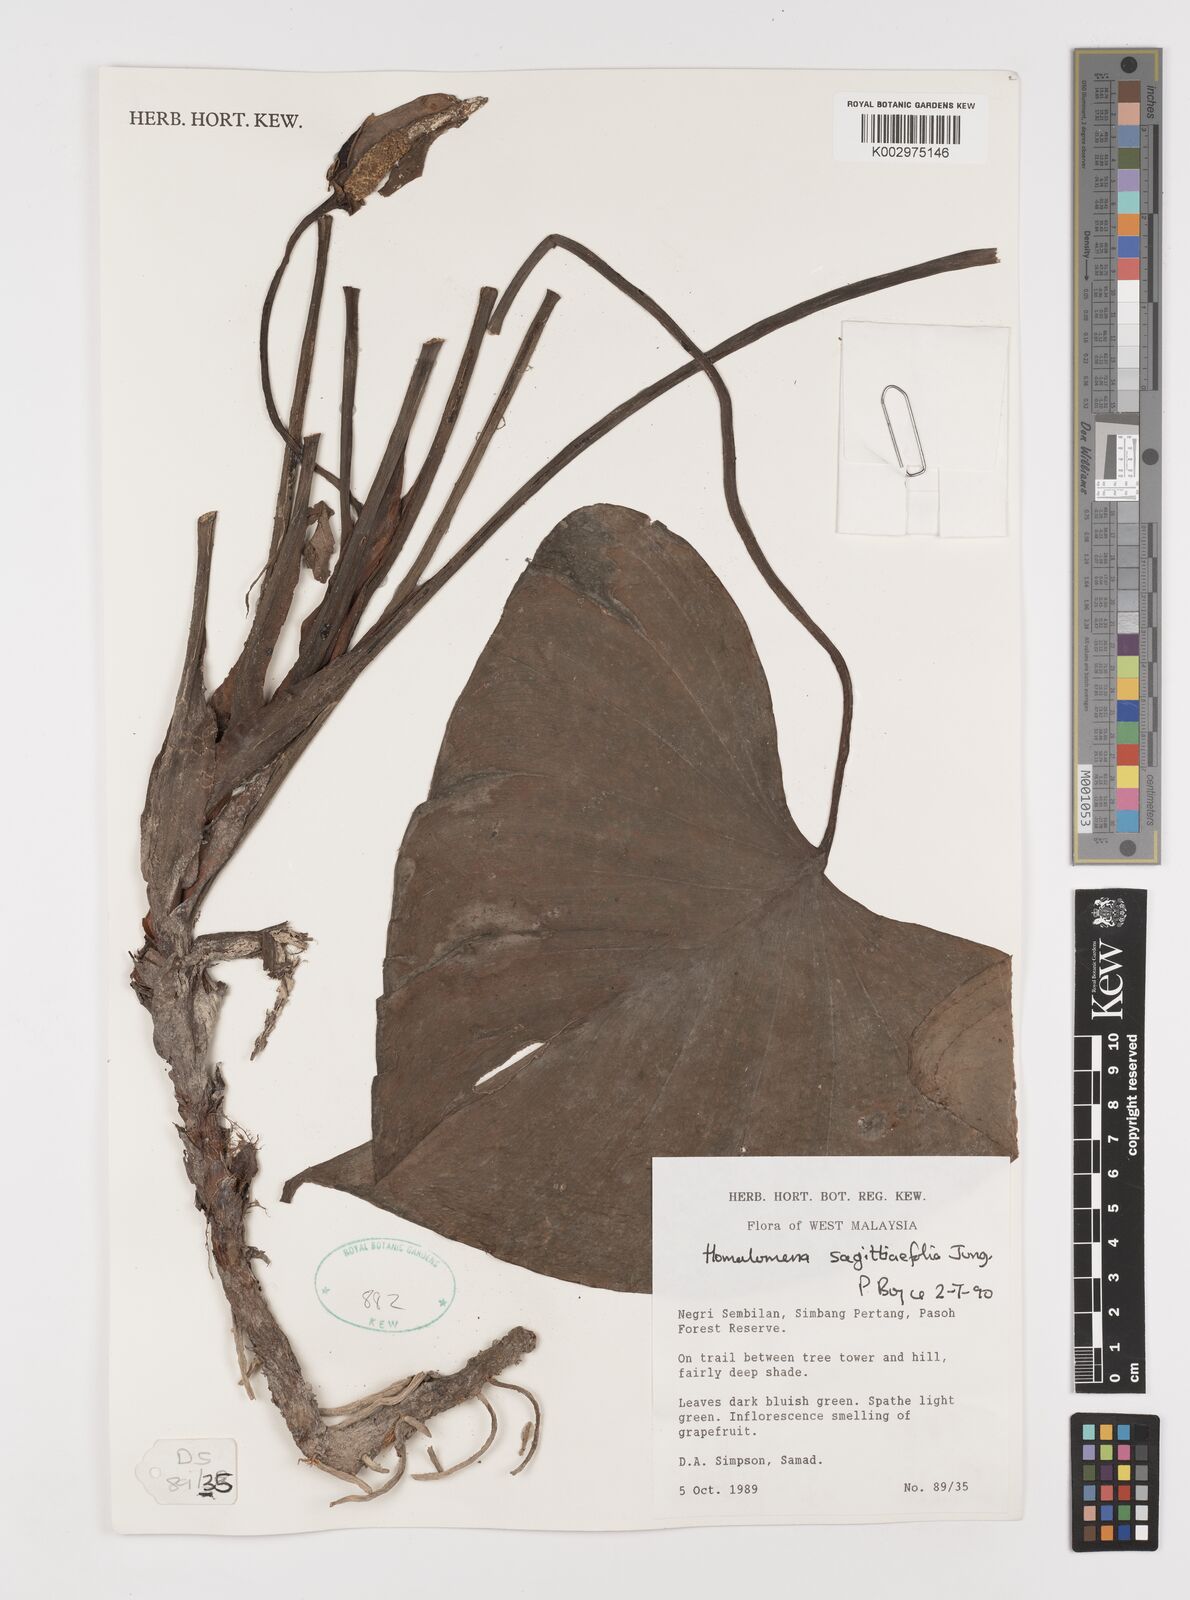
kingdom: Plantae
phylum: Tracheophyta
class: Liliopsida
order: Alismatales
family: Araceae
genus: Homalomena
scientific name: Homalomena rostrata
